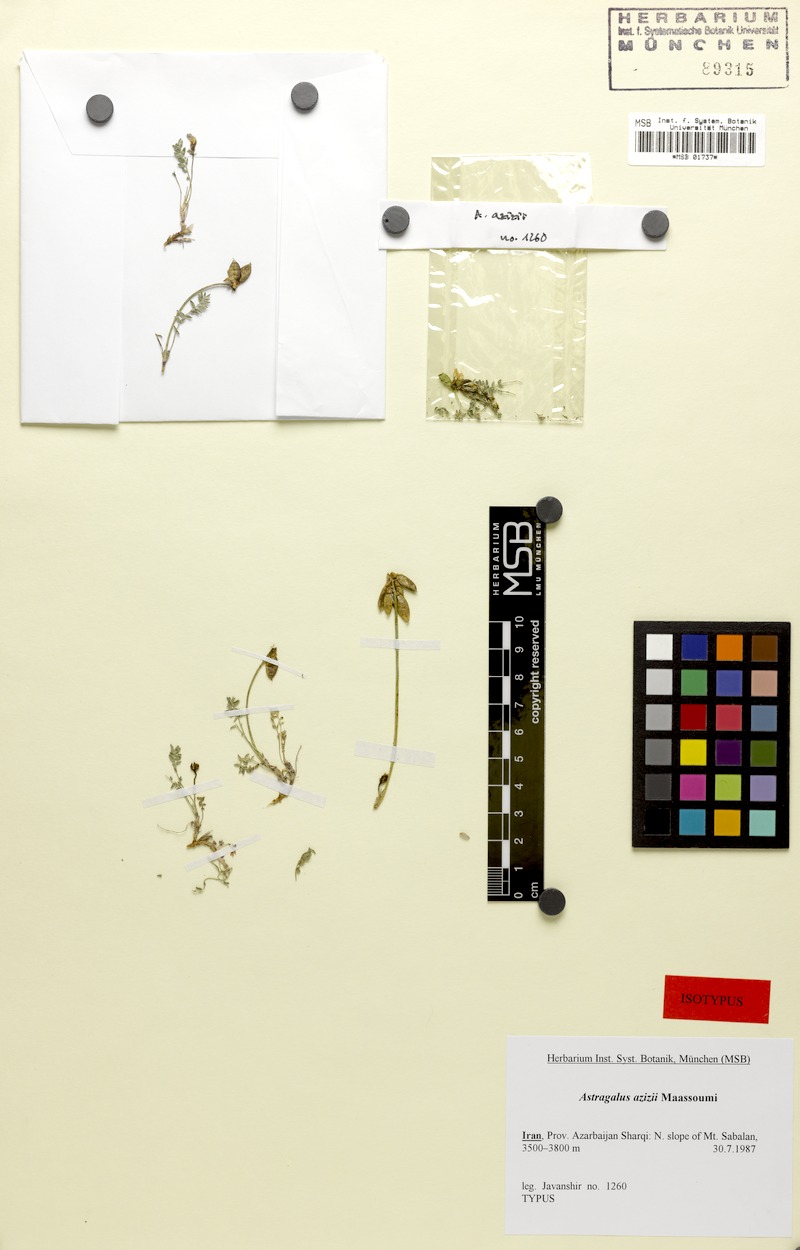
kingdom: Plantae
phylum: Tracheophyta
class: Magnoliopsida
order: Fabales
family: Fabaceae
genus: Astragalus
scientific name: Astragalus azizii
